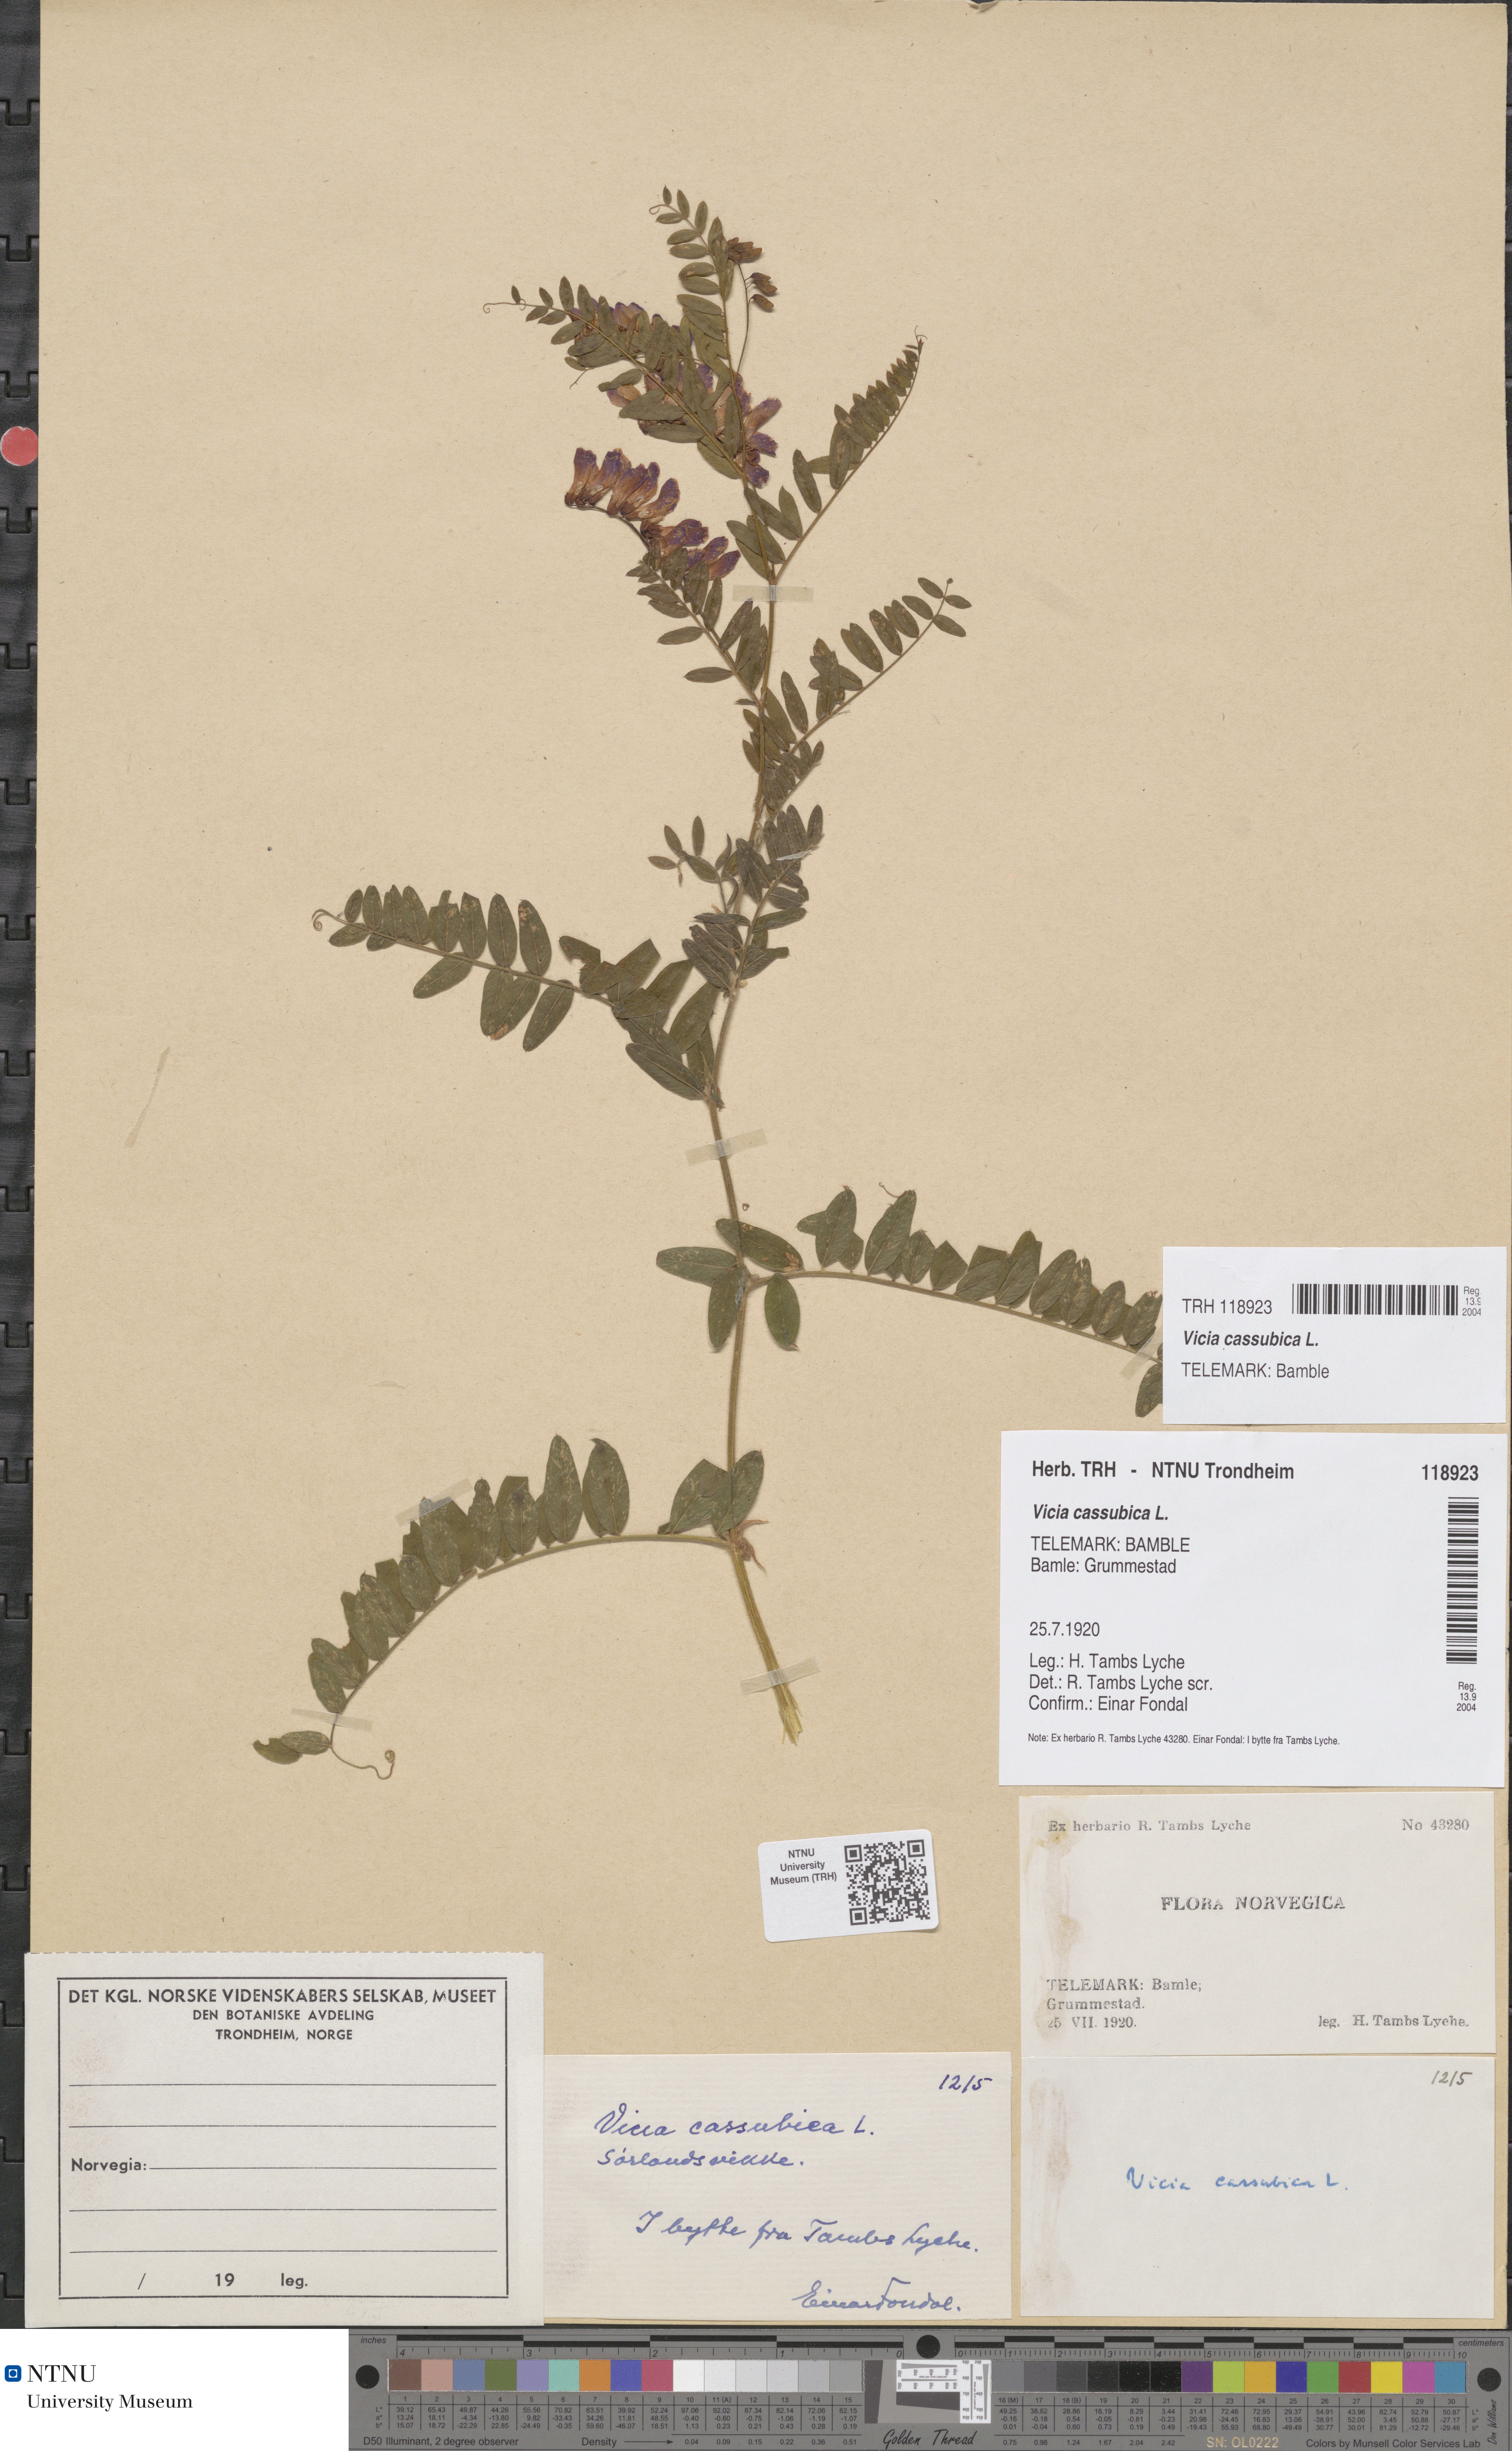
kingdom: Plantae
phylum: Tracheophyta
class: Magnoliopsida
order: Fabales
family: Fabaceae
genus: Vicia
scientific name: Vicia cassubica
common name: Danzig vetch
